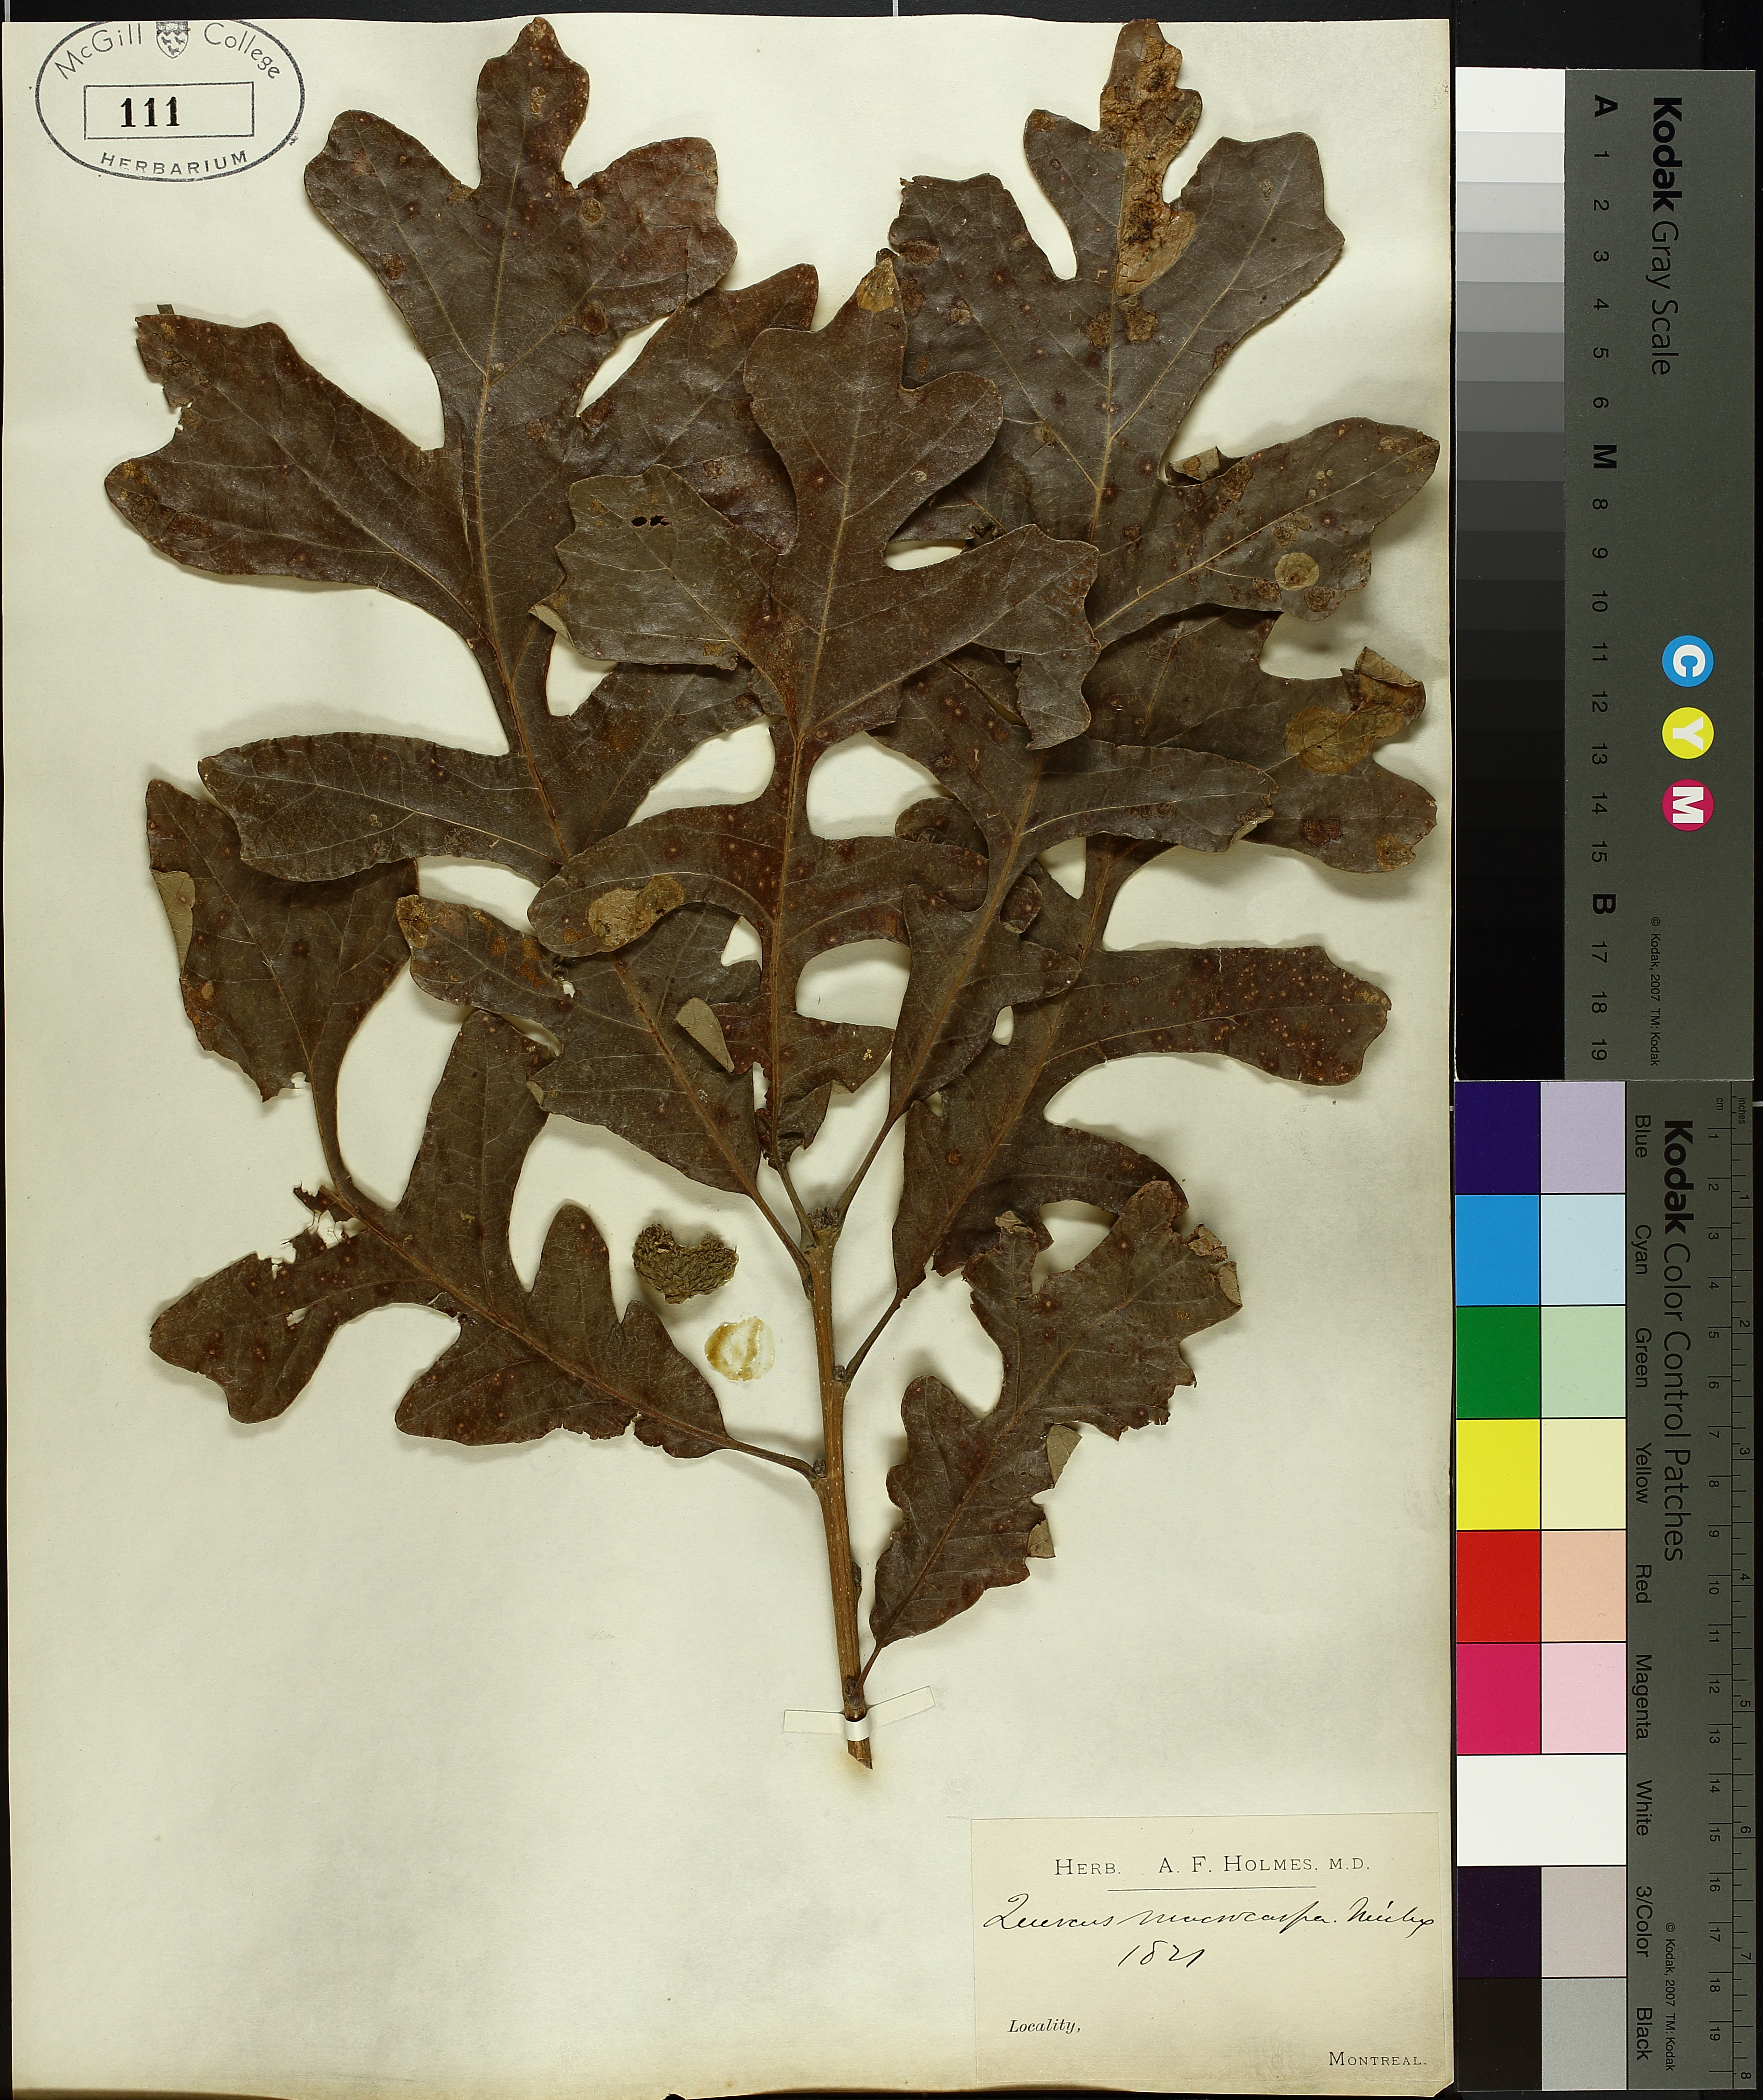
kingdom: Plantae
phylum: Tracheophyta
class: Magnoliopsida
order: Fagales
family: Fagaceae
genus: Quercus
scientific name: Quercus macrocarpa
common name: Bur oak
